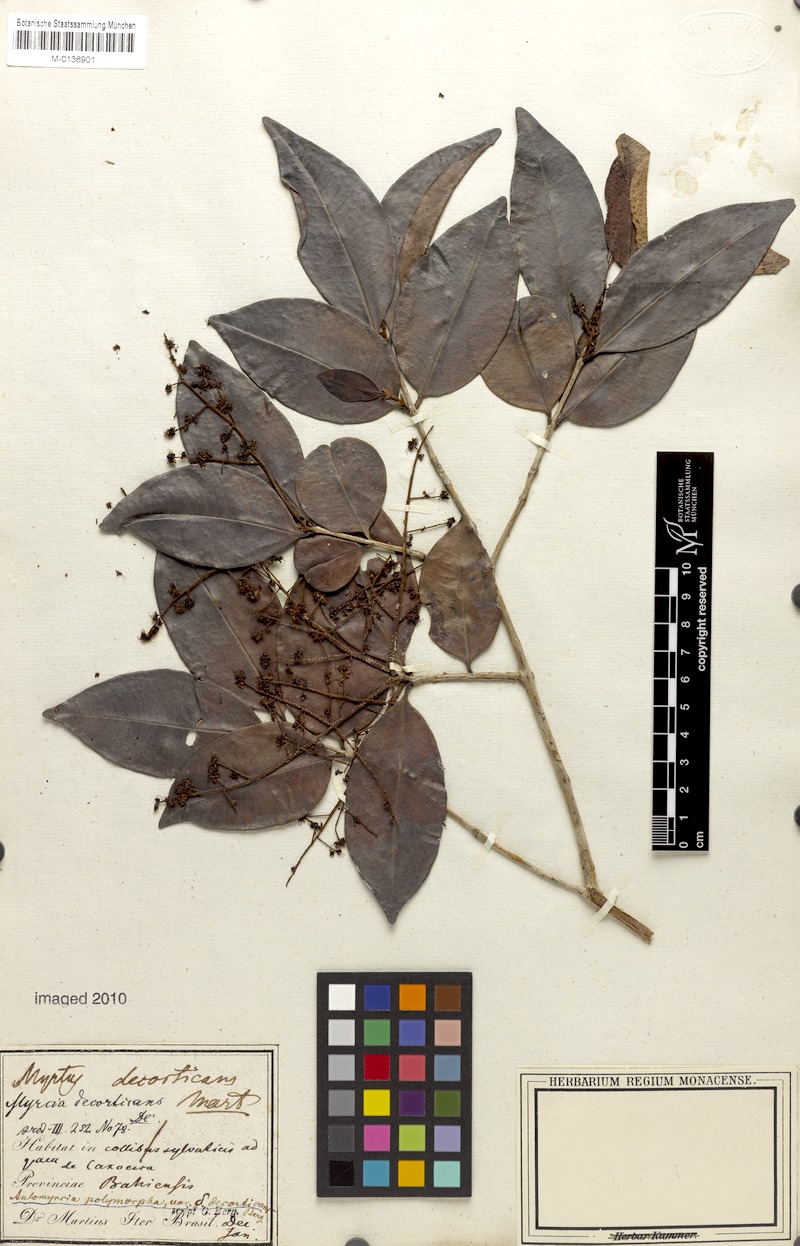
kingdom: Plantae
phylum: Tracheophyta
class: Magnoliopsida
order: Myrtales
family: Myrtaceae
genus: Myrcia
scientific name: Myrcia decorticans
